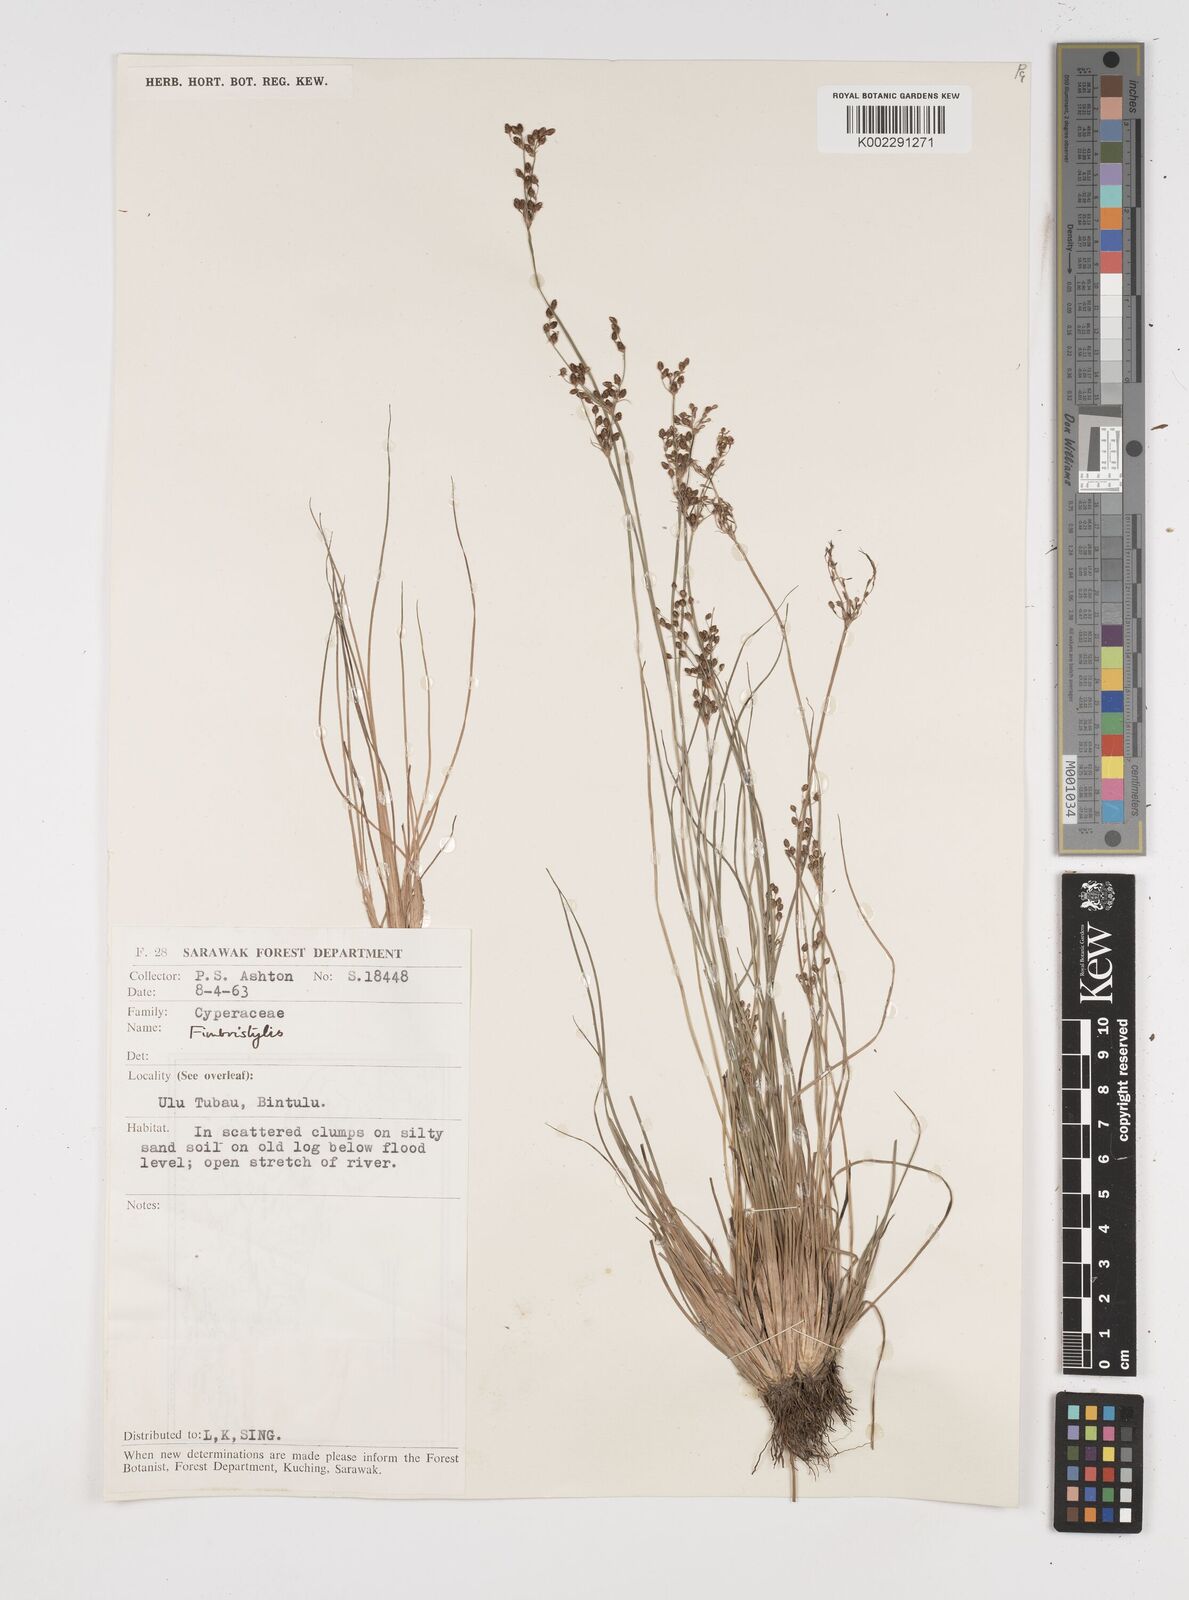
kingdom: Plantae
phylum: Tracheophyta
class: Liliopsida
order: Poales
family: Cyperaceae
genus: Fimbristylis
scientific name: Fimbristylis
